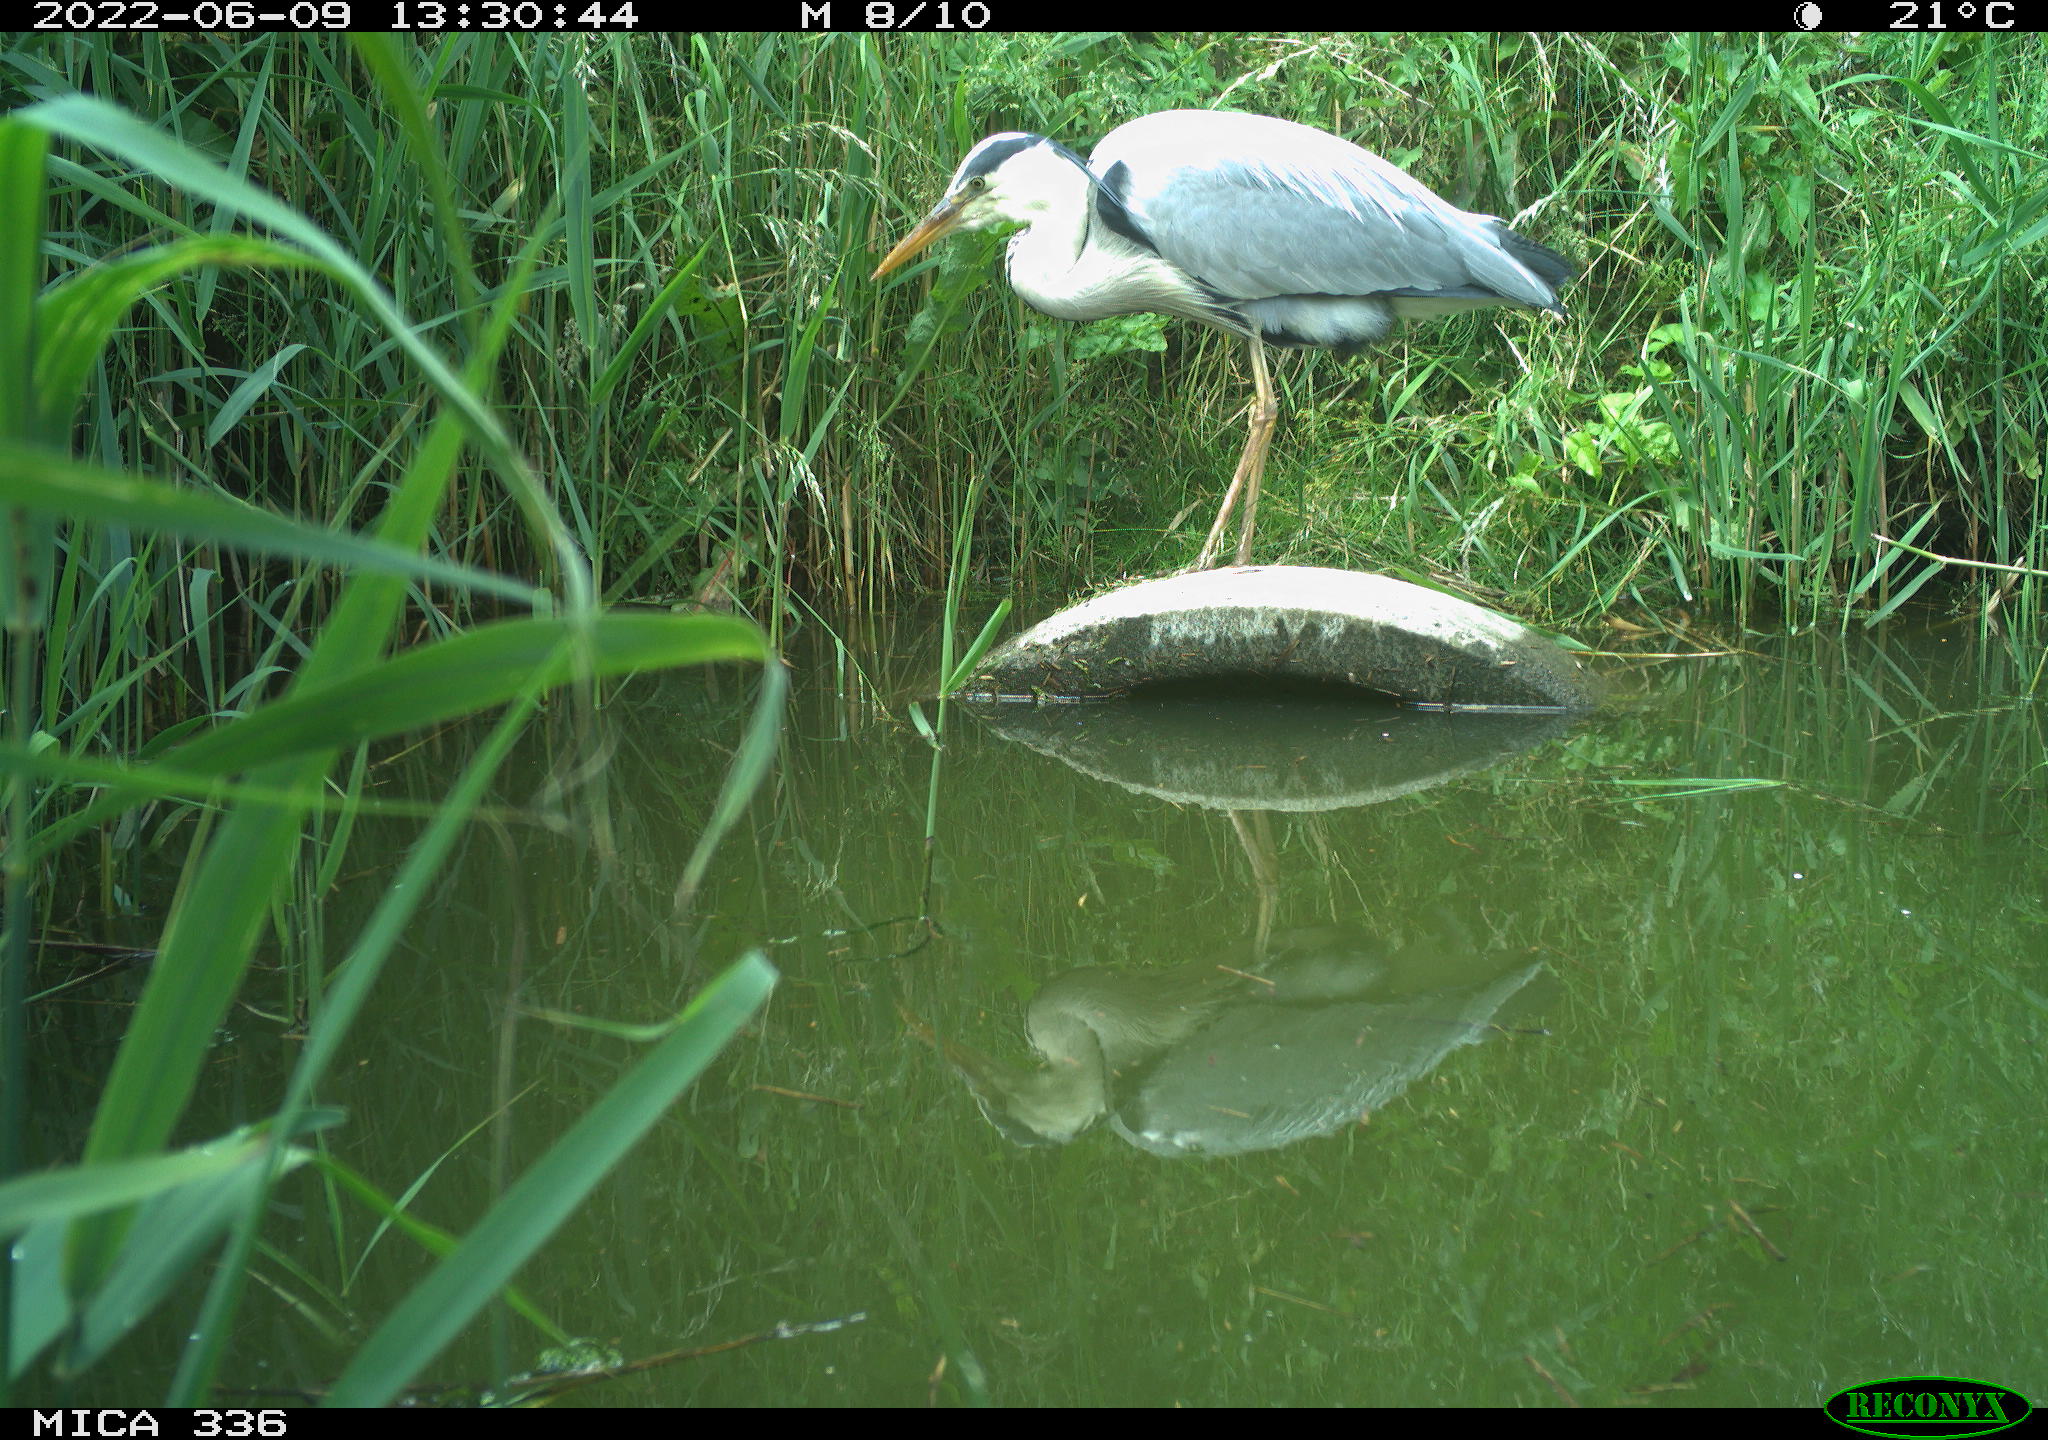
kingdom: Animalia
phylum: Chordata
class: Aves
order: Pelecaniformes
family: Ardeidae
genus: Ardea
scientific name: Ardea
